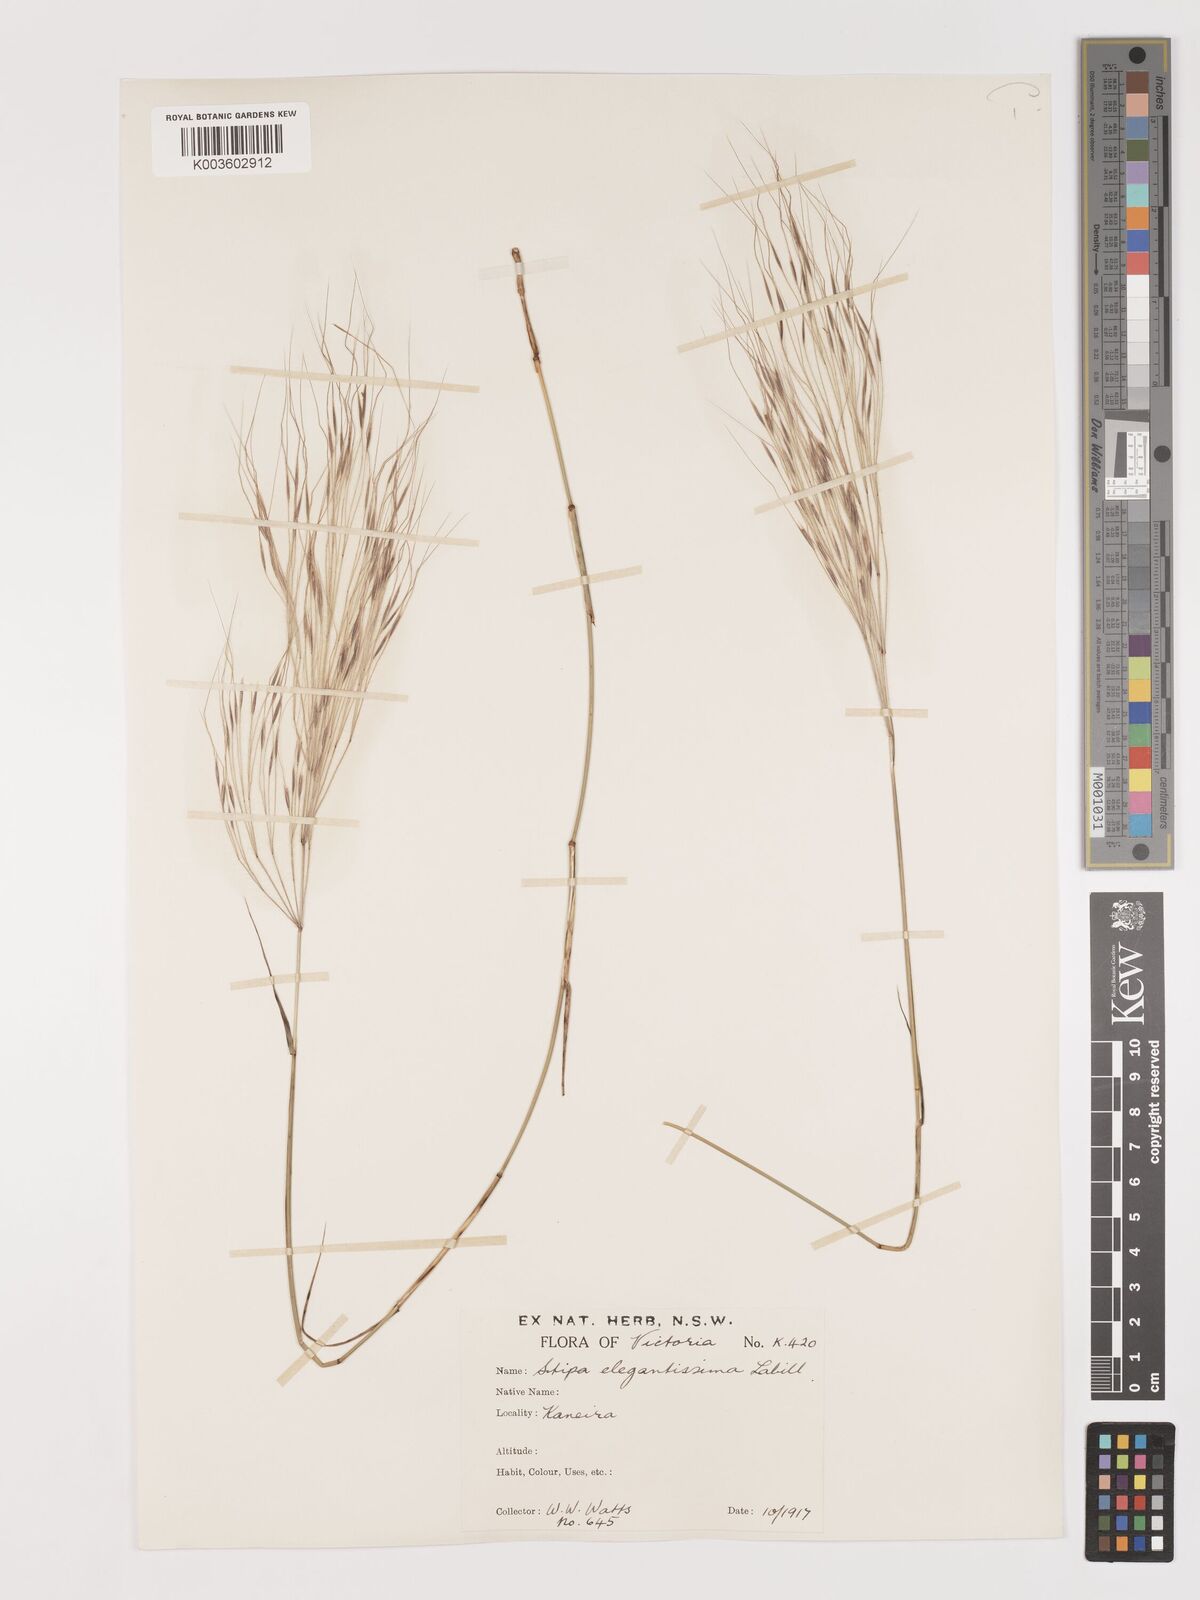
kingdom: Plantae
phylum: Tracheophyta
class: Liliopsida
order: Poales
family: Poaceae
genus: Austrostipa
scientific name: Austrostipa elegantissima
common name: Feather spear grass
